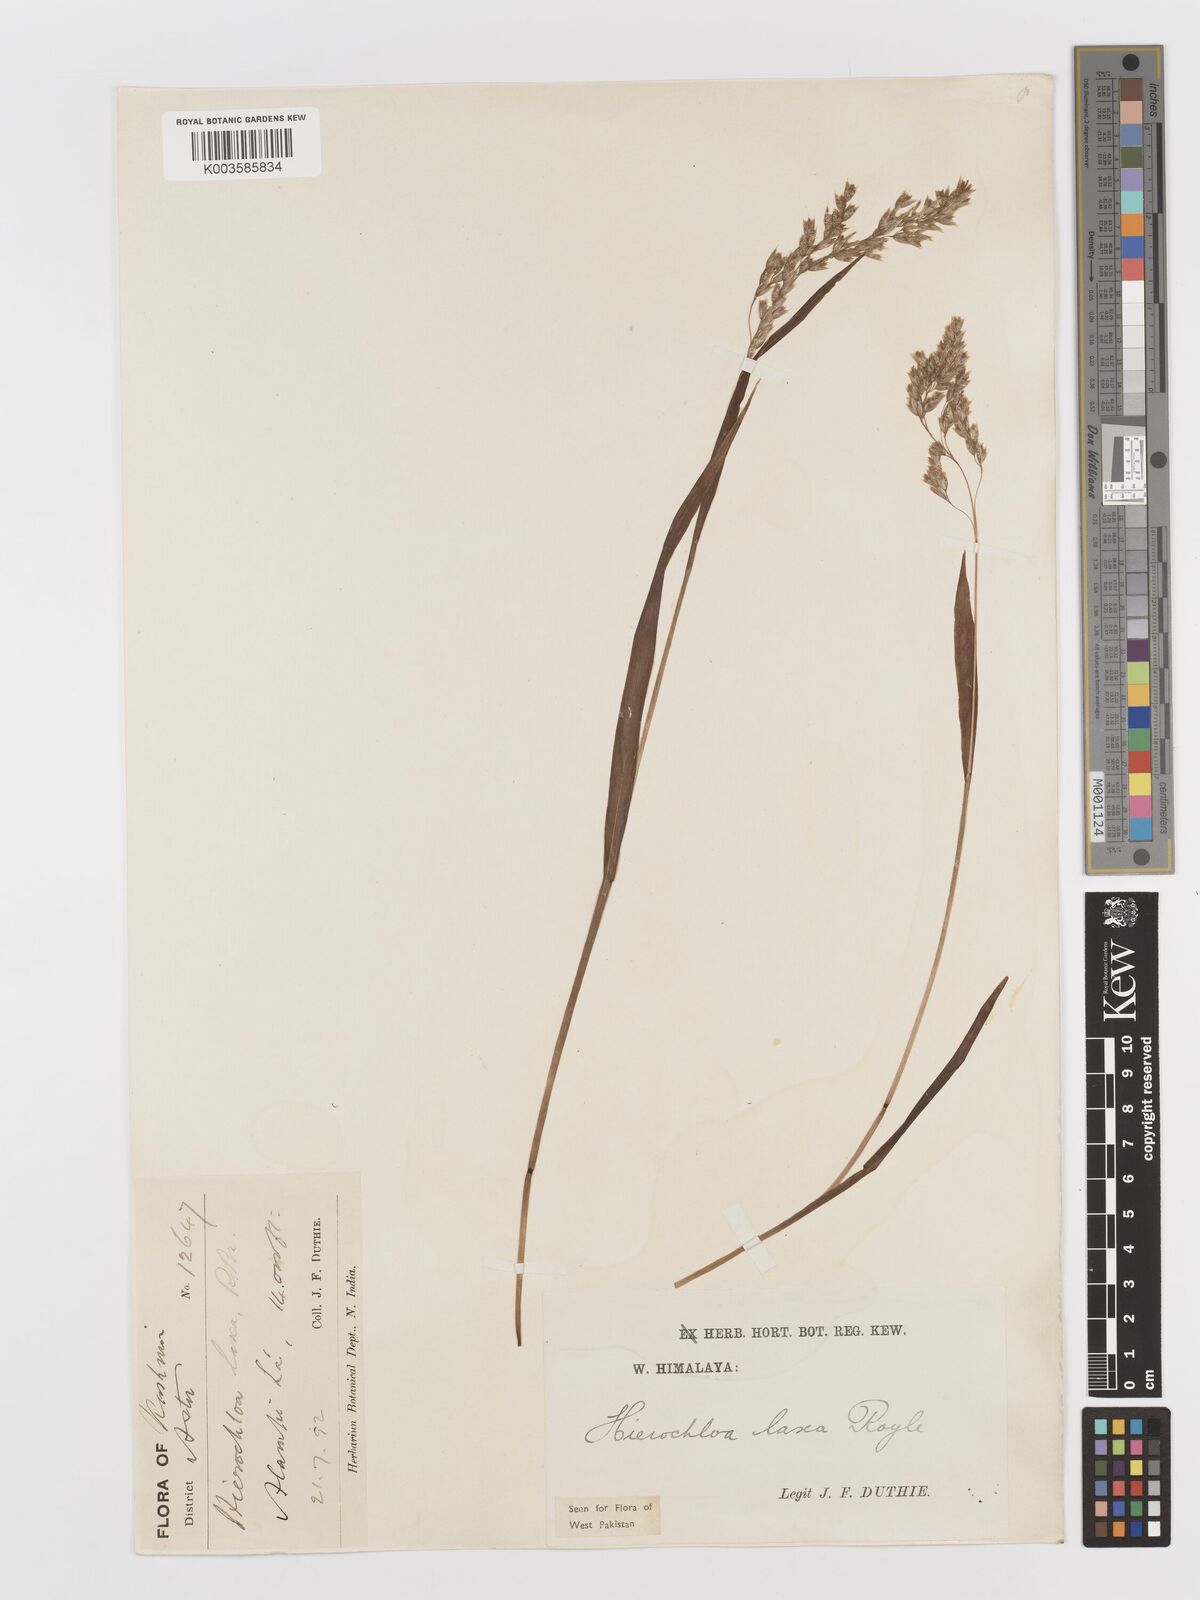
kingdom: Plantae
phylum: Tracheophyta
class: Liliopsida
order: Poales
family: Poaceae
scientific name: Poaceae
